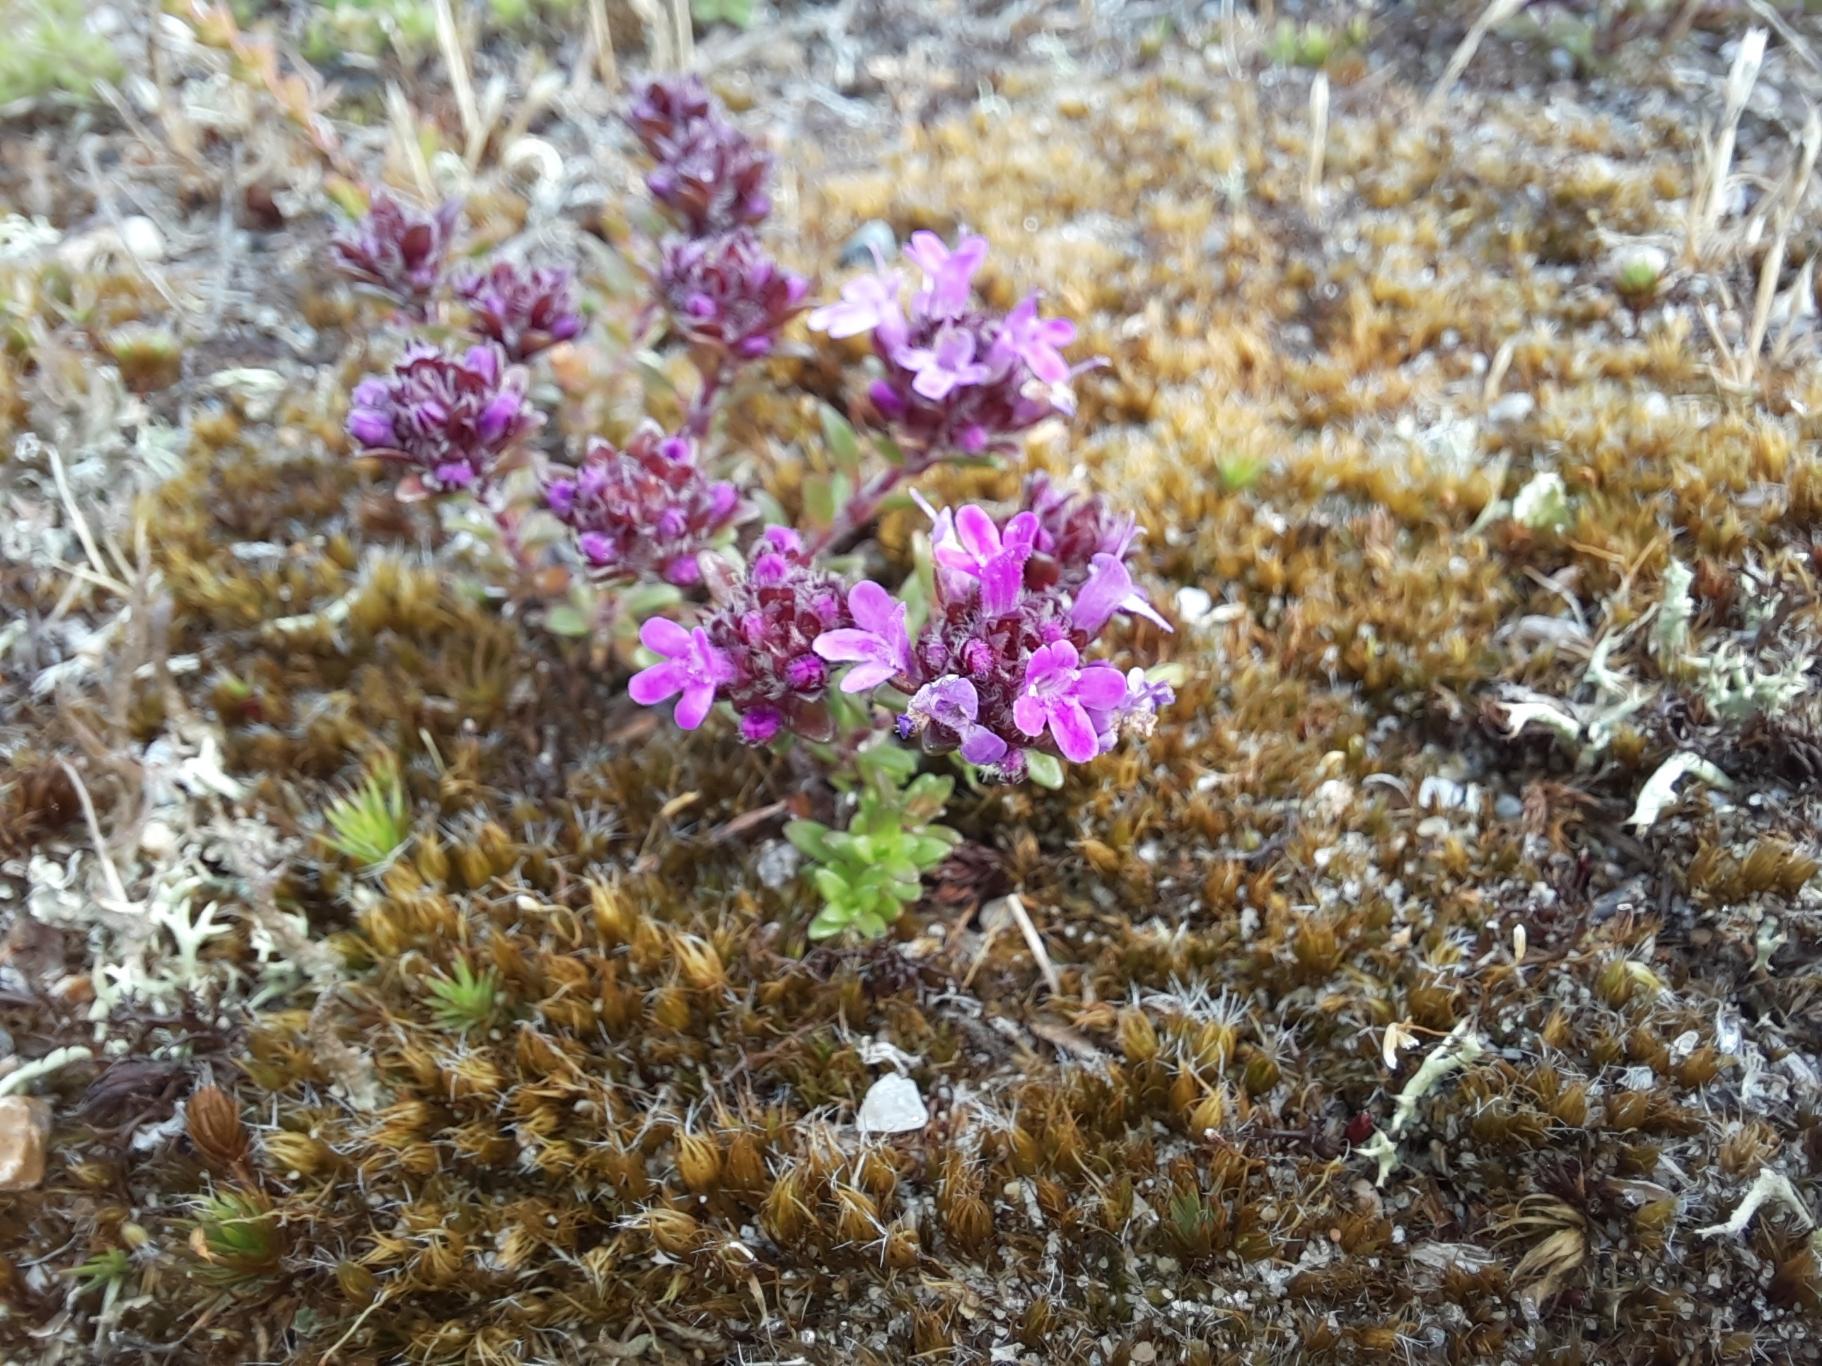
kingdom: Plantae
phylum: Tracheophyta
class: Magnoliopsida
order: Lamiales
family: Lamiaceae
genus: Thymus
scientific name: Thymus serpyllum
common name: Smalbladet timian
